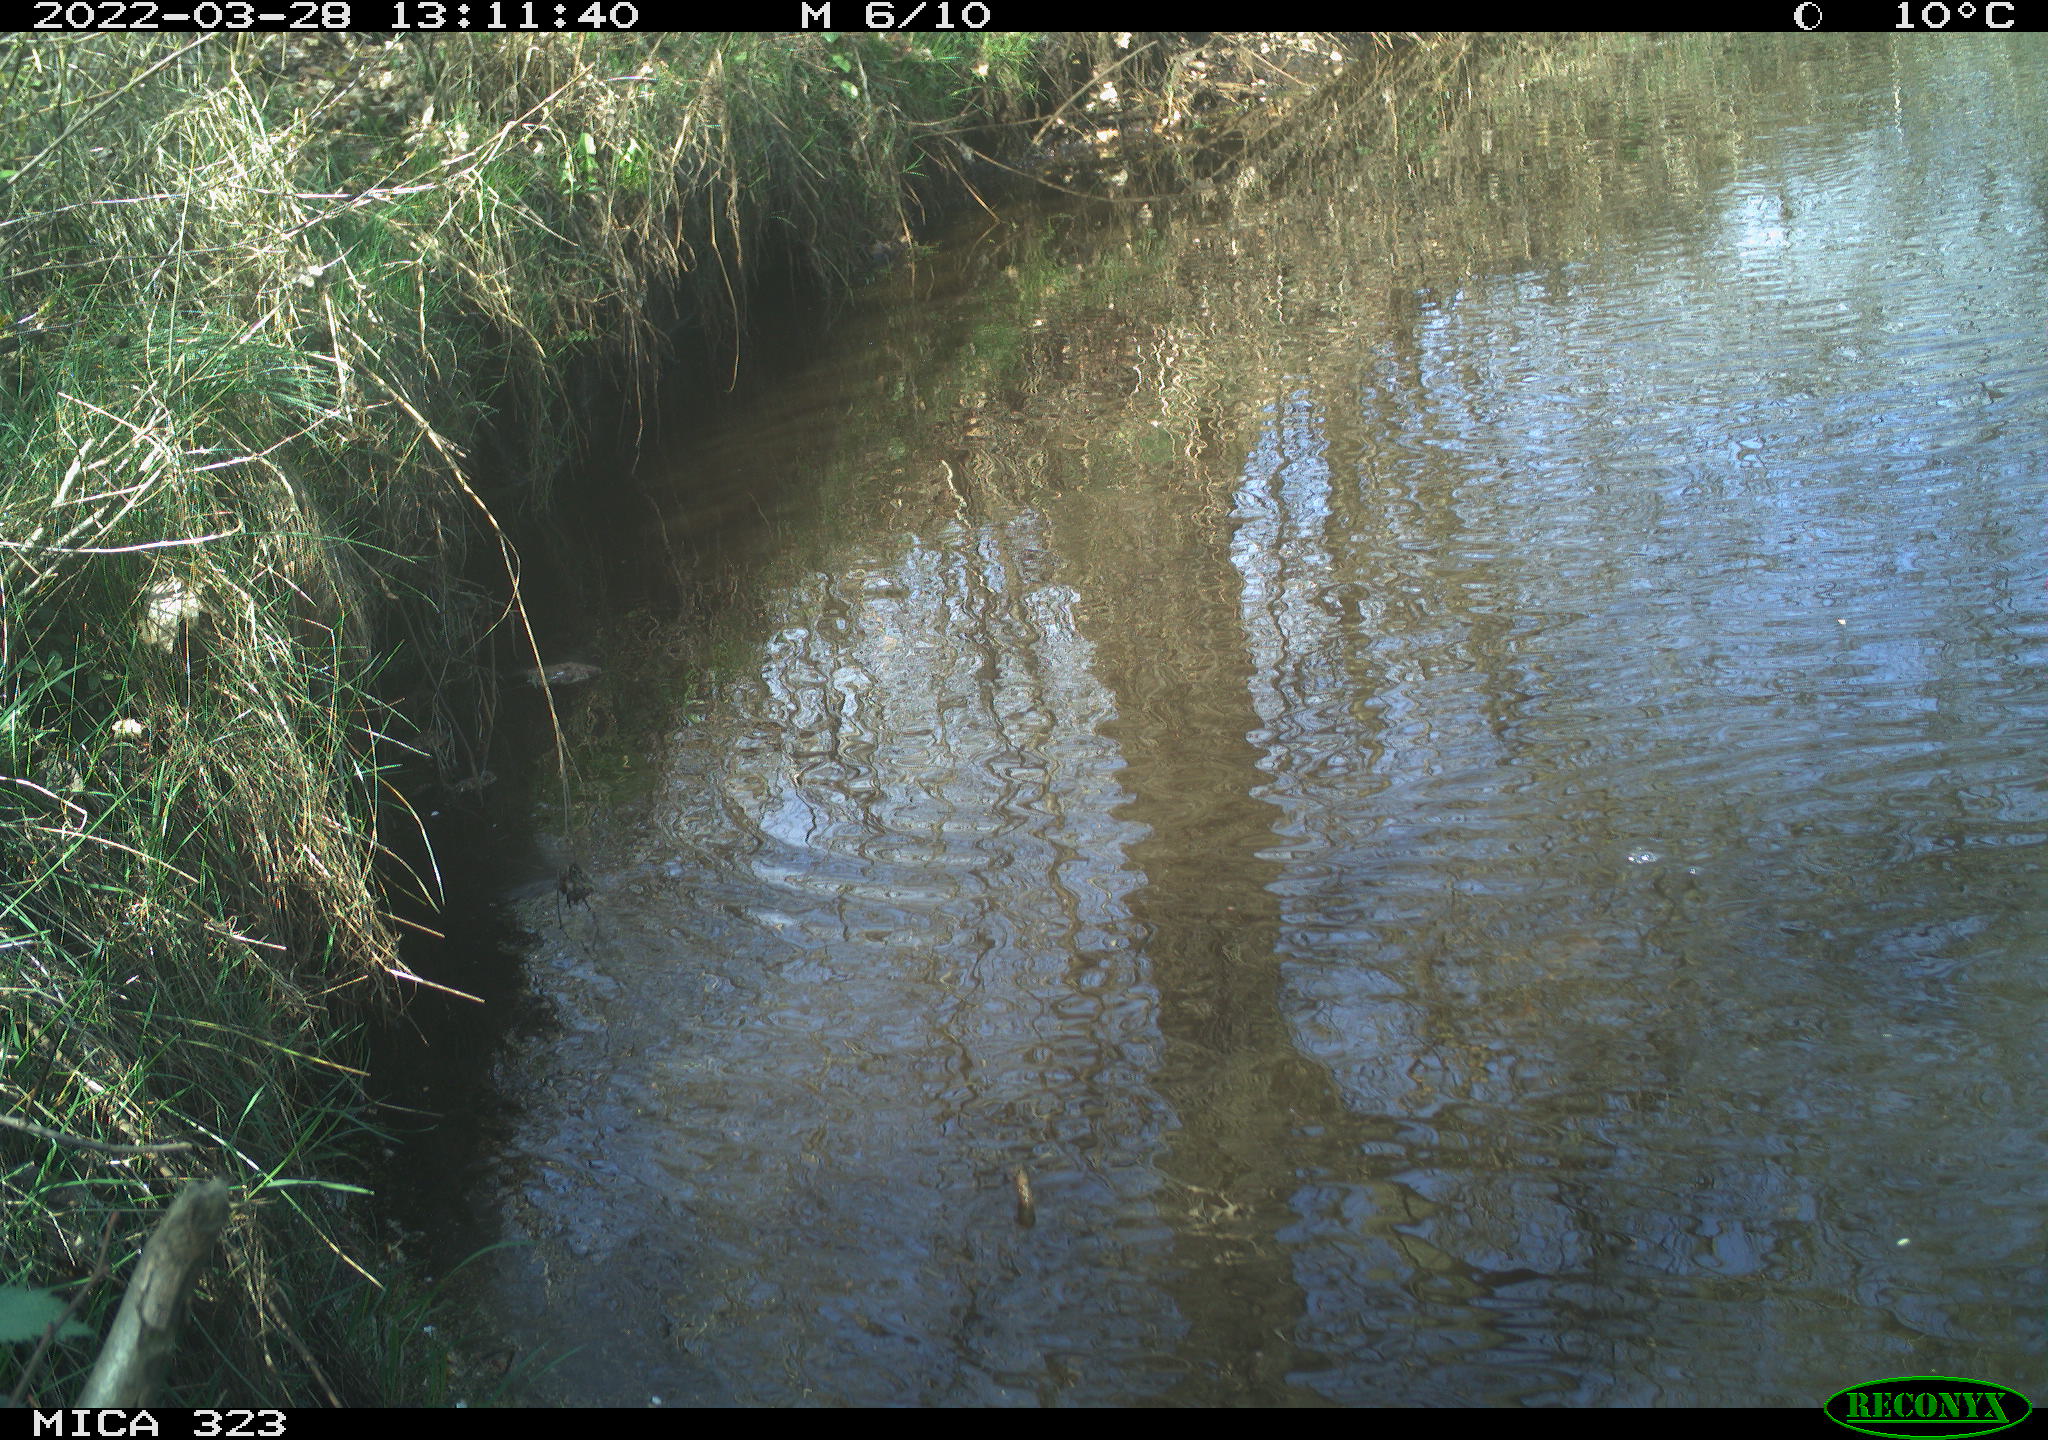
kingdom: Animalia
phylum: Chordata
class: Aves
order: Anseriformes
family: Anatidae
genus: Anas
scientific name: Anas platyrhynchos
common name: Mallard
